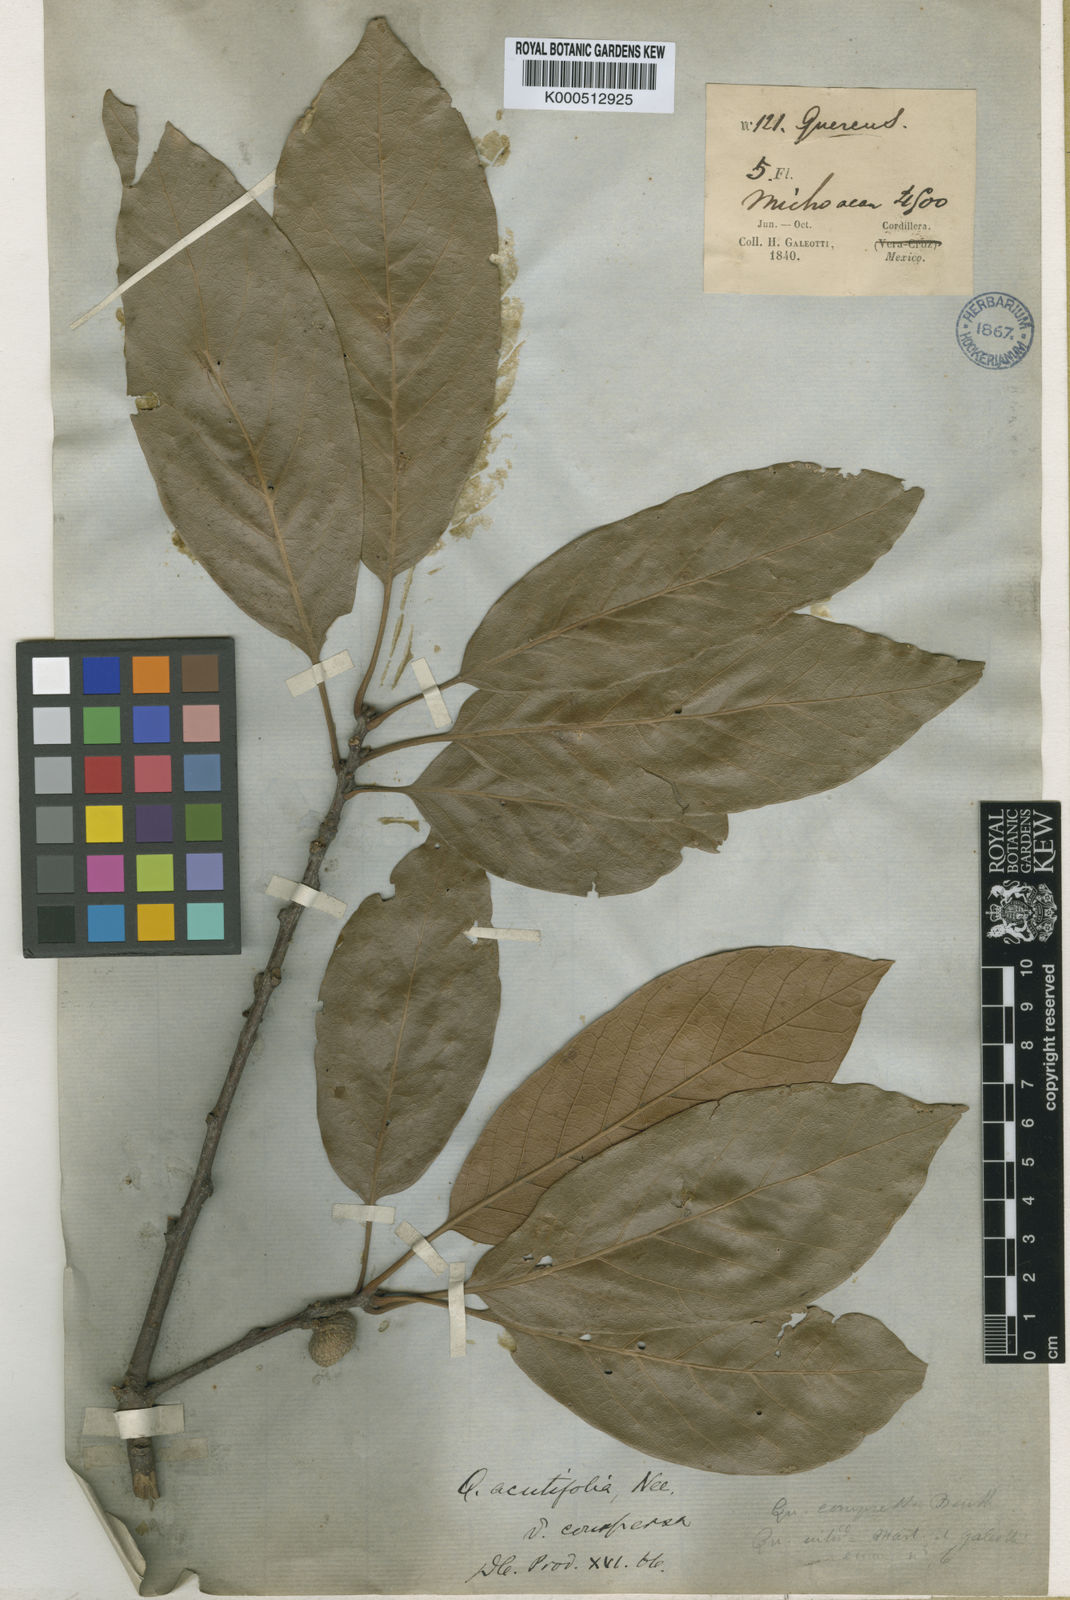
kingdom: Plantae
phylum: Tracheophyta
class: Magnoliopsida
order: Fagales
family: Fagaceae
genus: Quercus
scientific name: Quercus acutifolia
